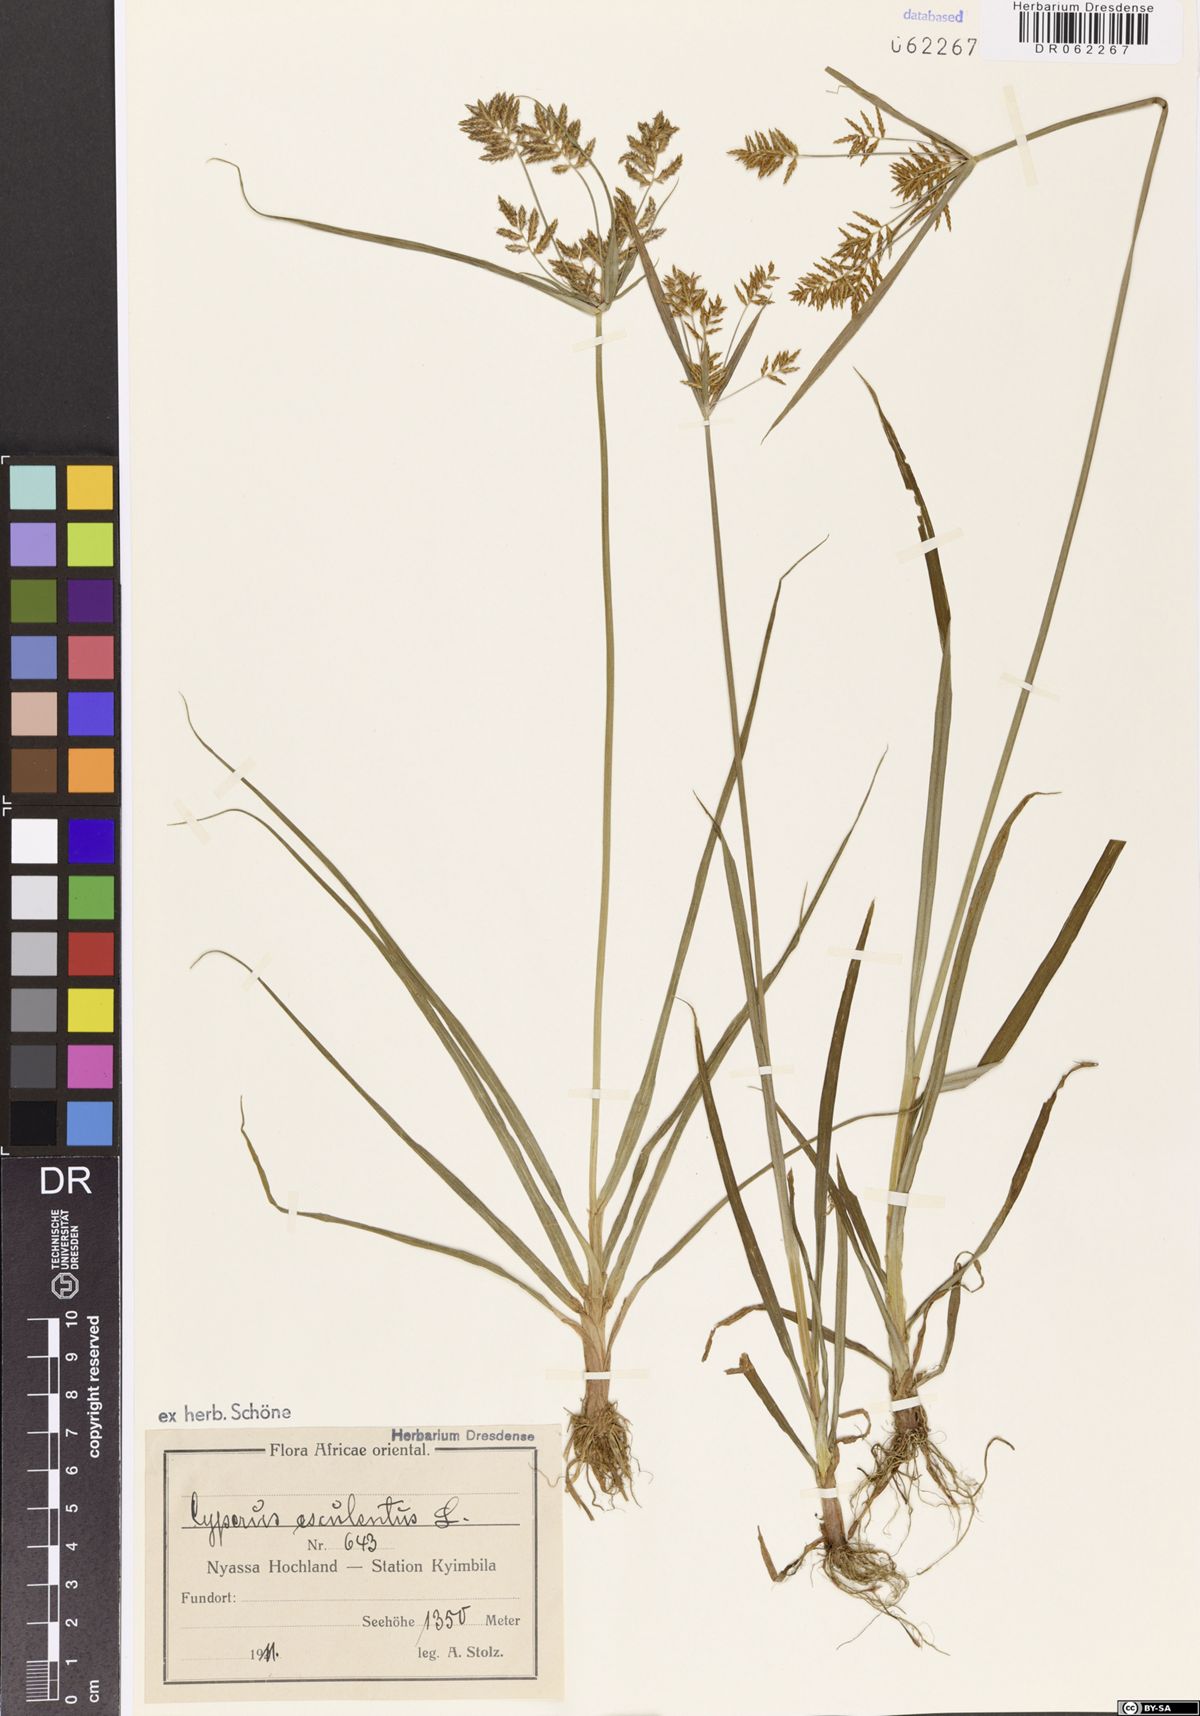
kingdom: Plantae
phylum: Tracheophyta
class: Liliopsida
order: Poales
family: Cyperaceae
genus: Cyperus
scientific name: Cyperus esculentus
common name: Yellow nutsedge
